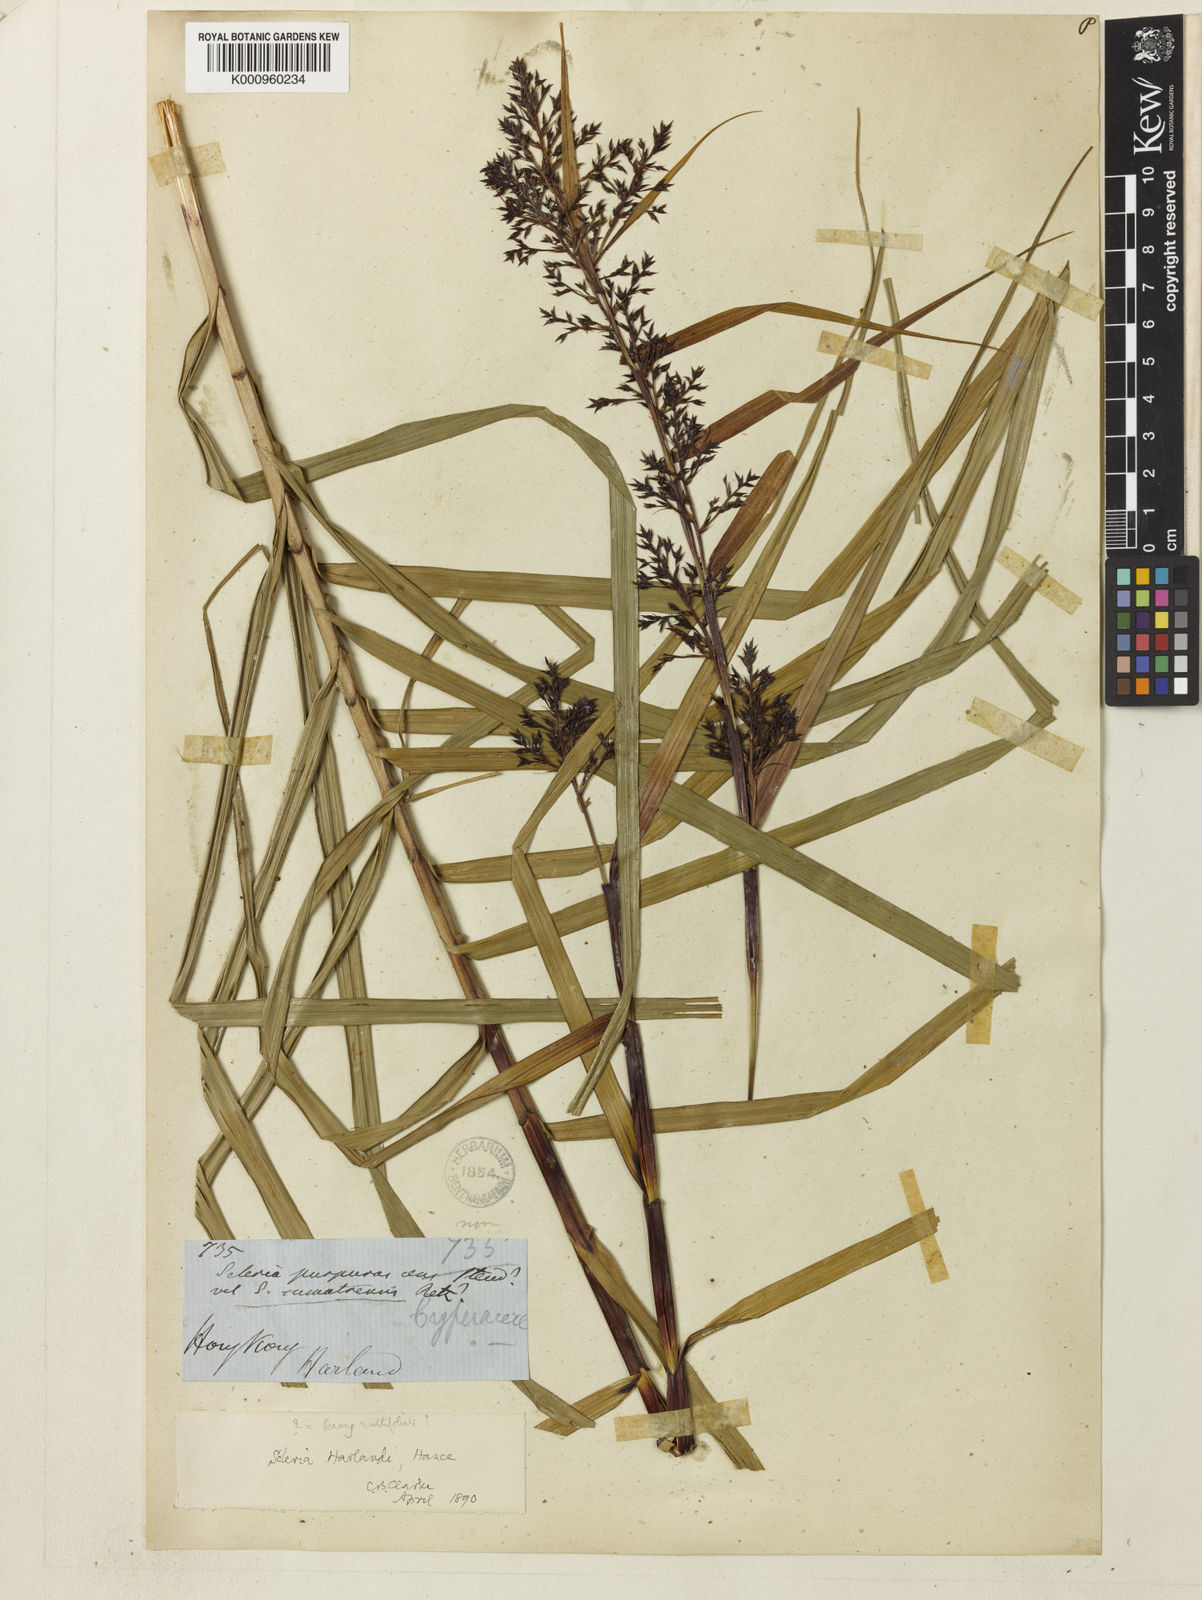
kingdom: Plantae
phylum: Tracheophyta
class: Liliopsida
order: Poales
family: Cyperaceae
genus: Scleria
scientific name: Scleria harlandii
